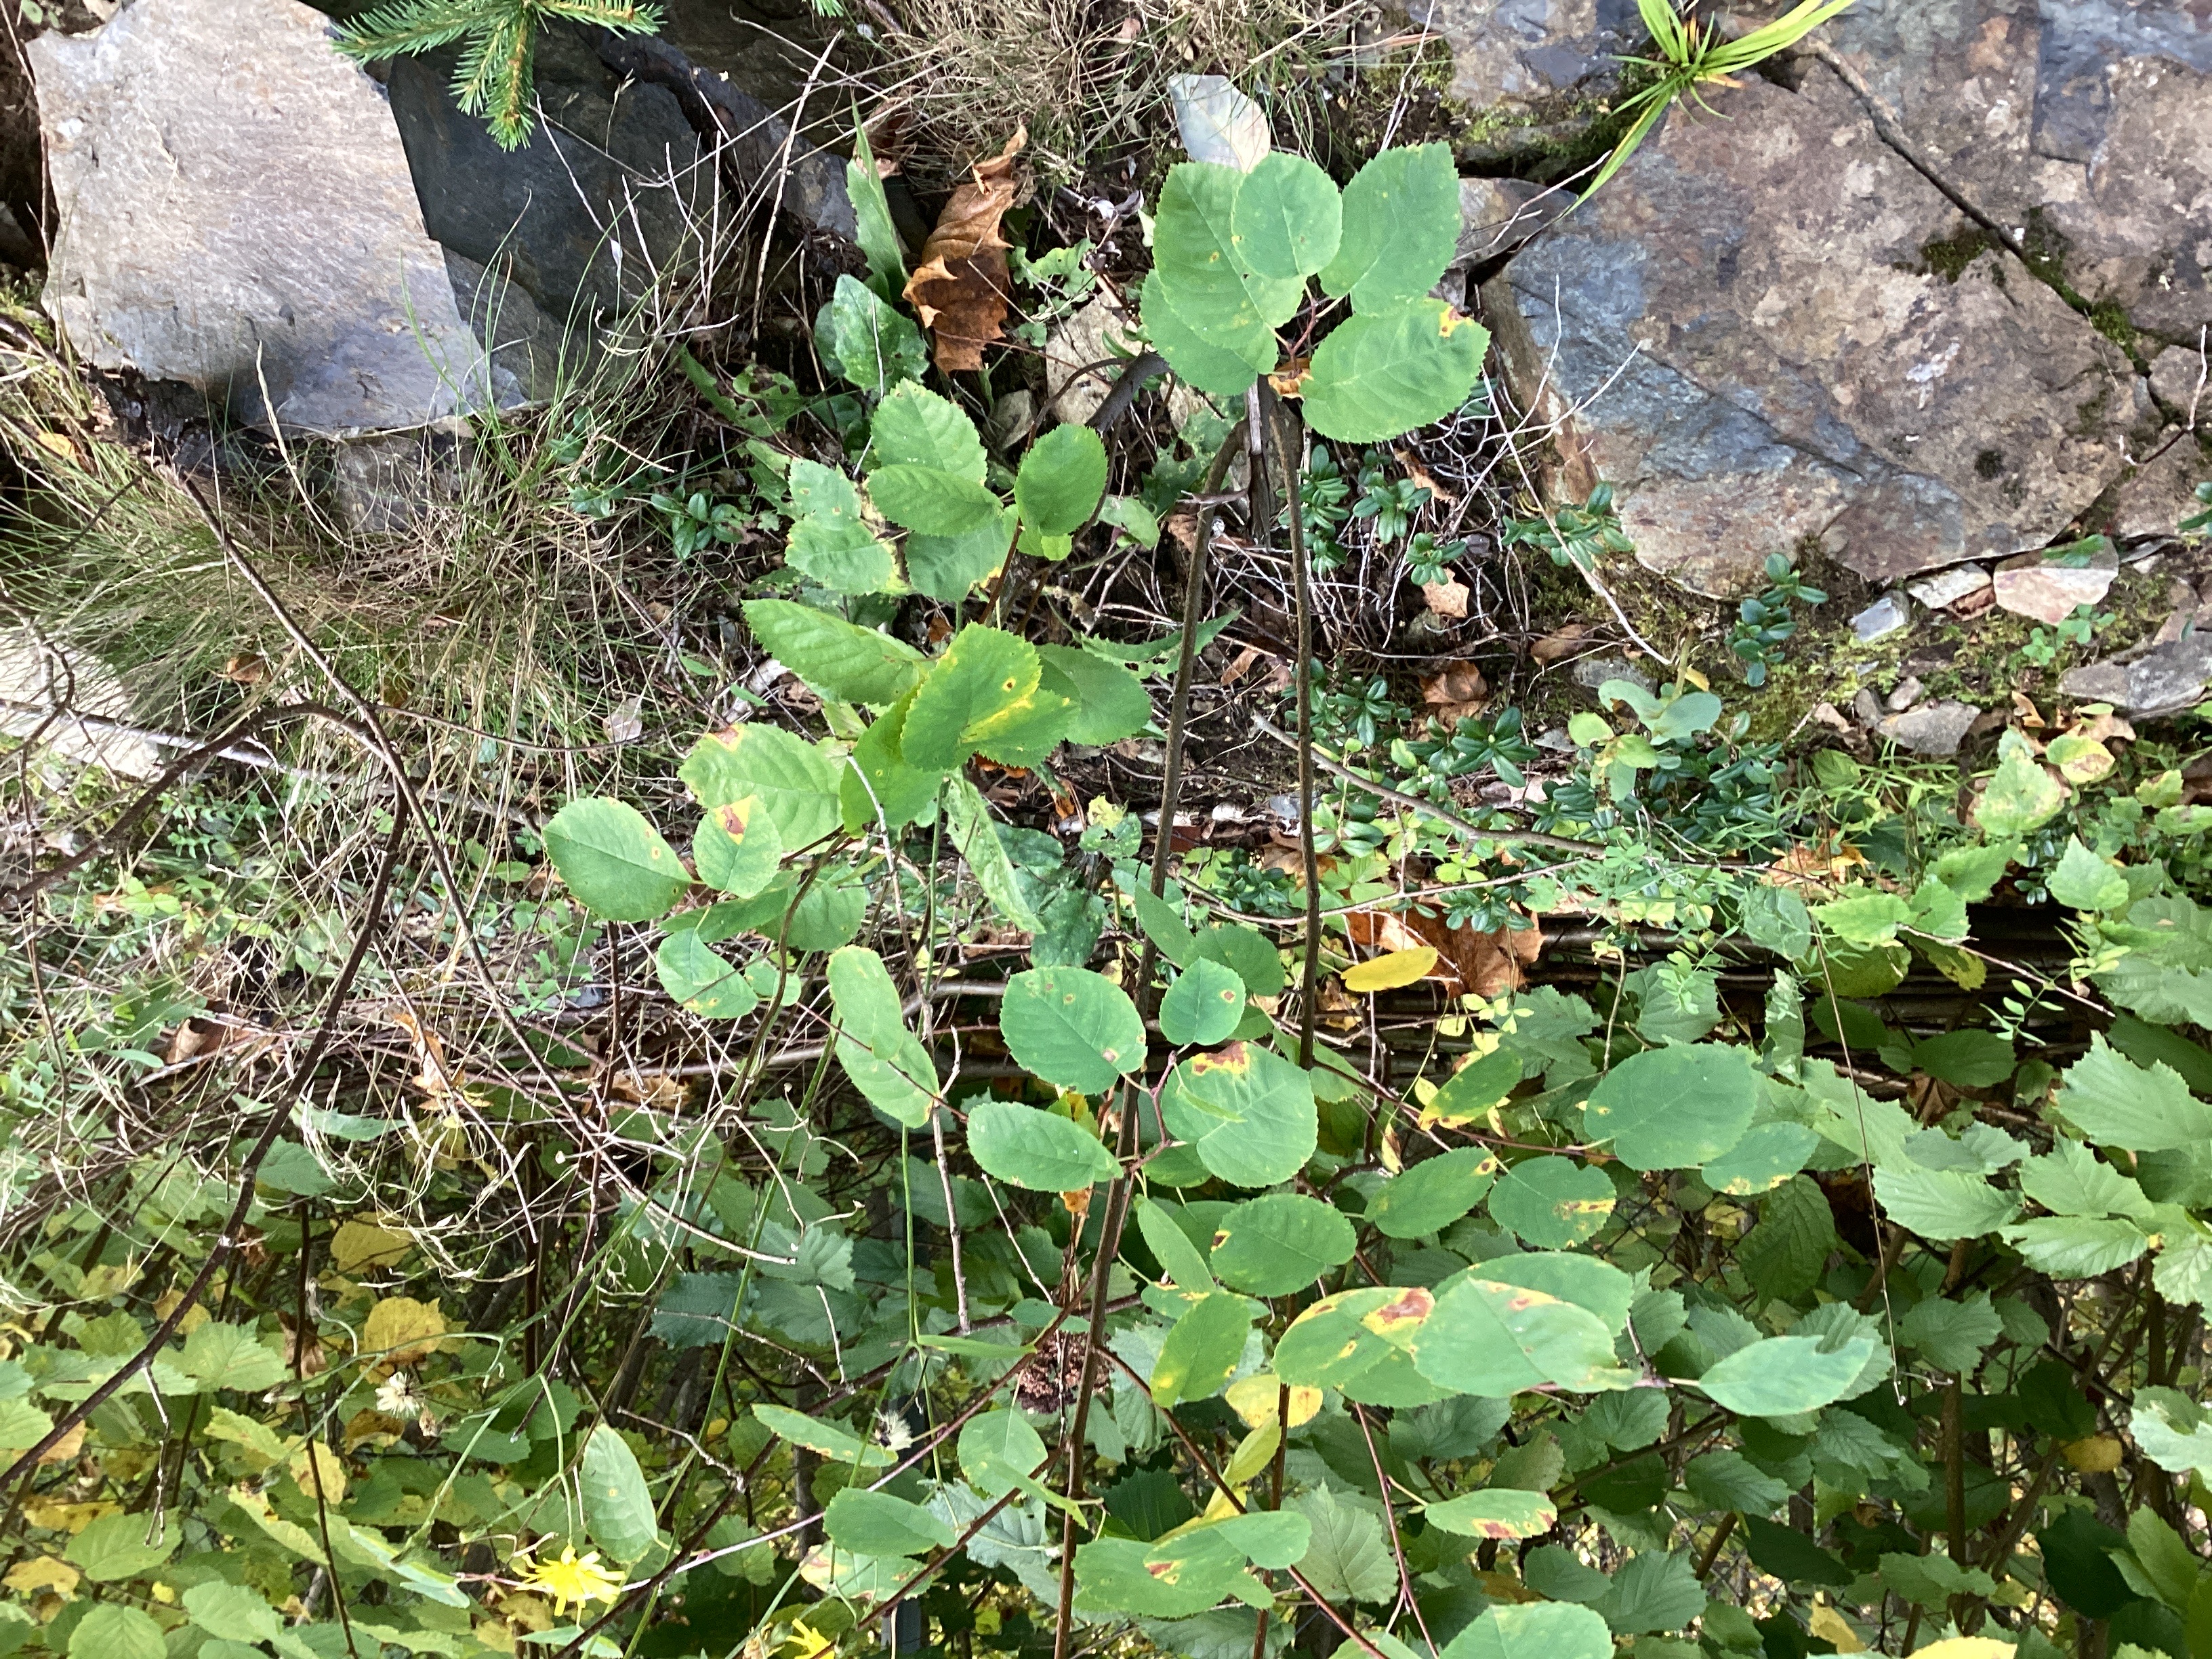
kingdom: Plantae
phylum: Tracheophyta
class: Magnoliopsida
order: Rosales
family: Rosaceae
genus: Amelanchier
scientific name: Amelanchier humilis
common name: blåhegg
